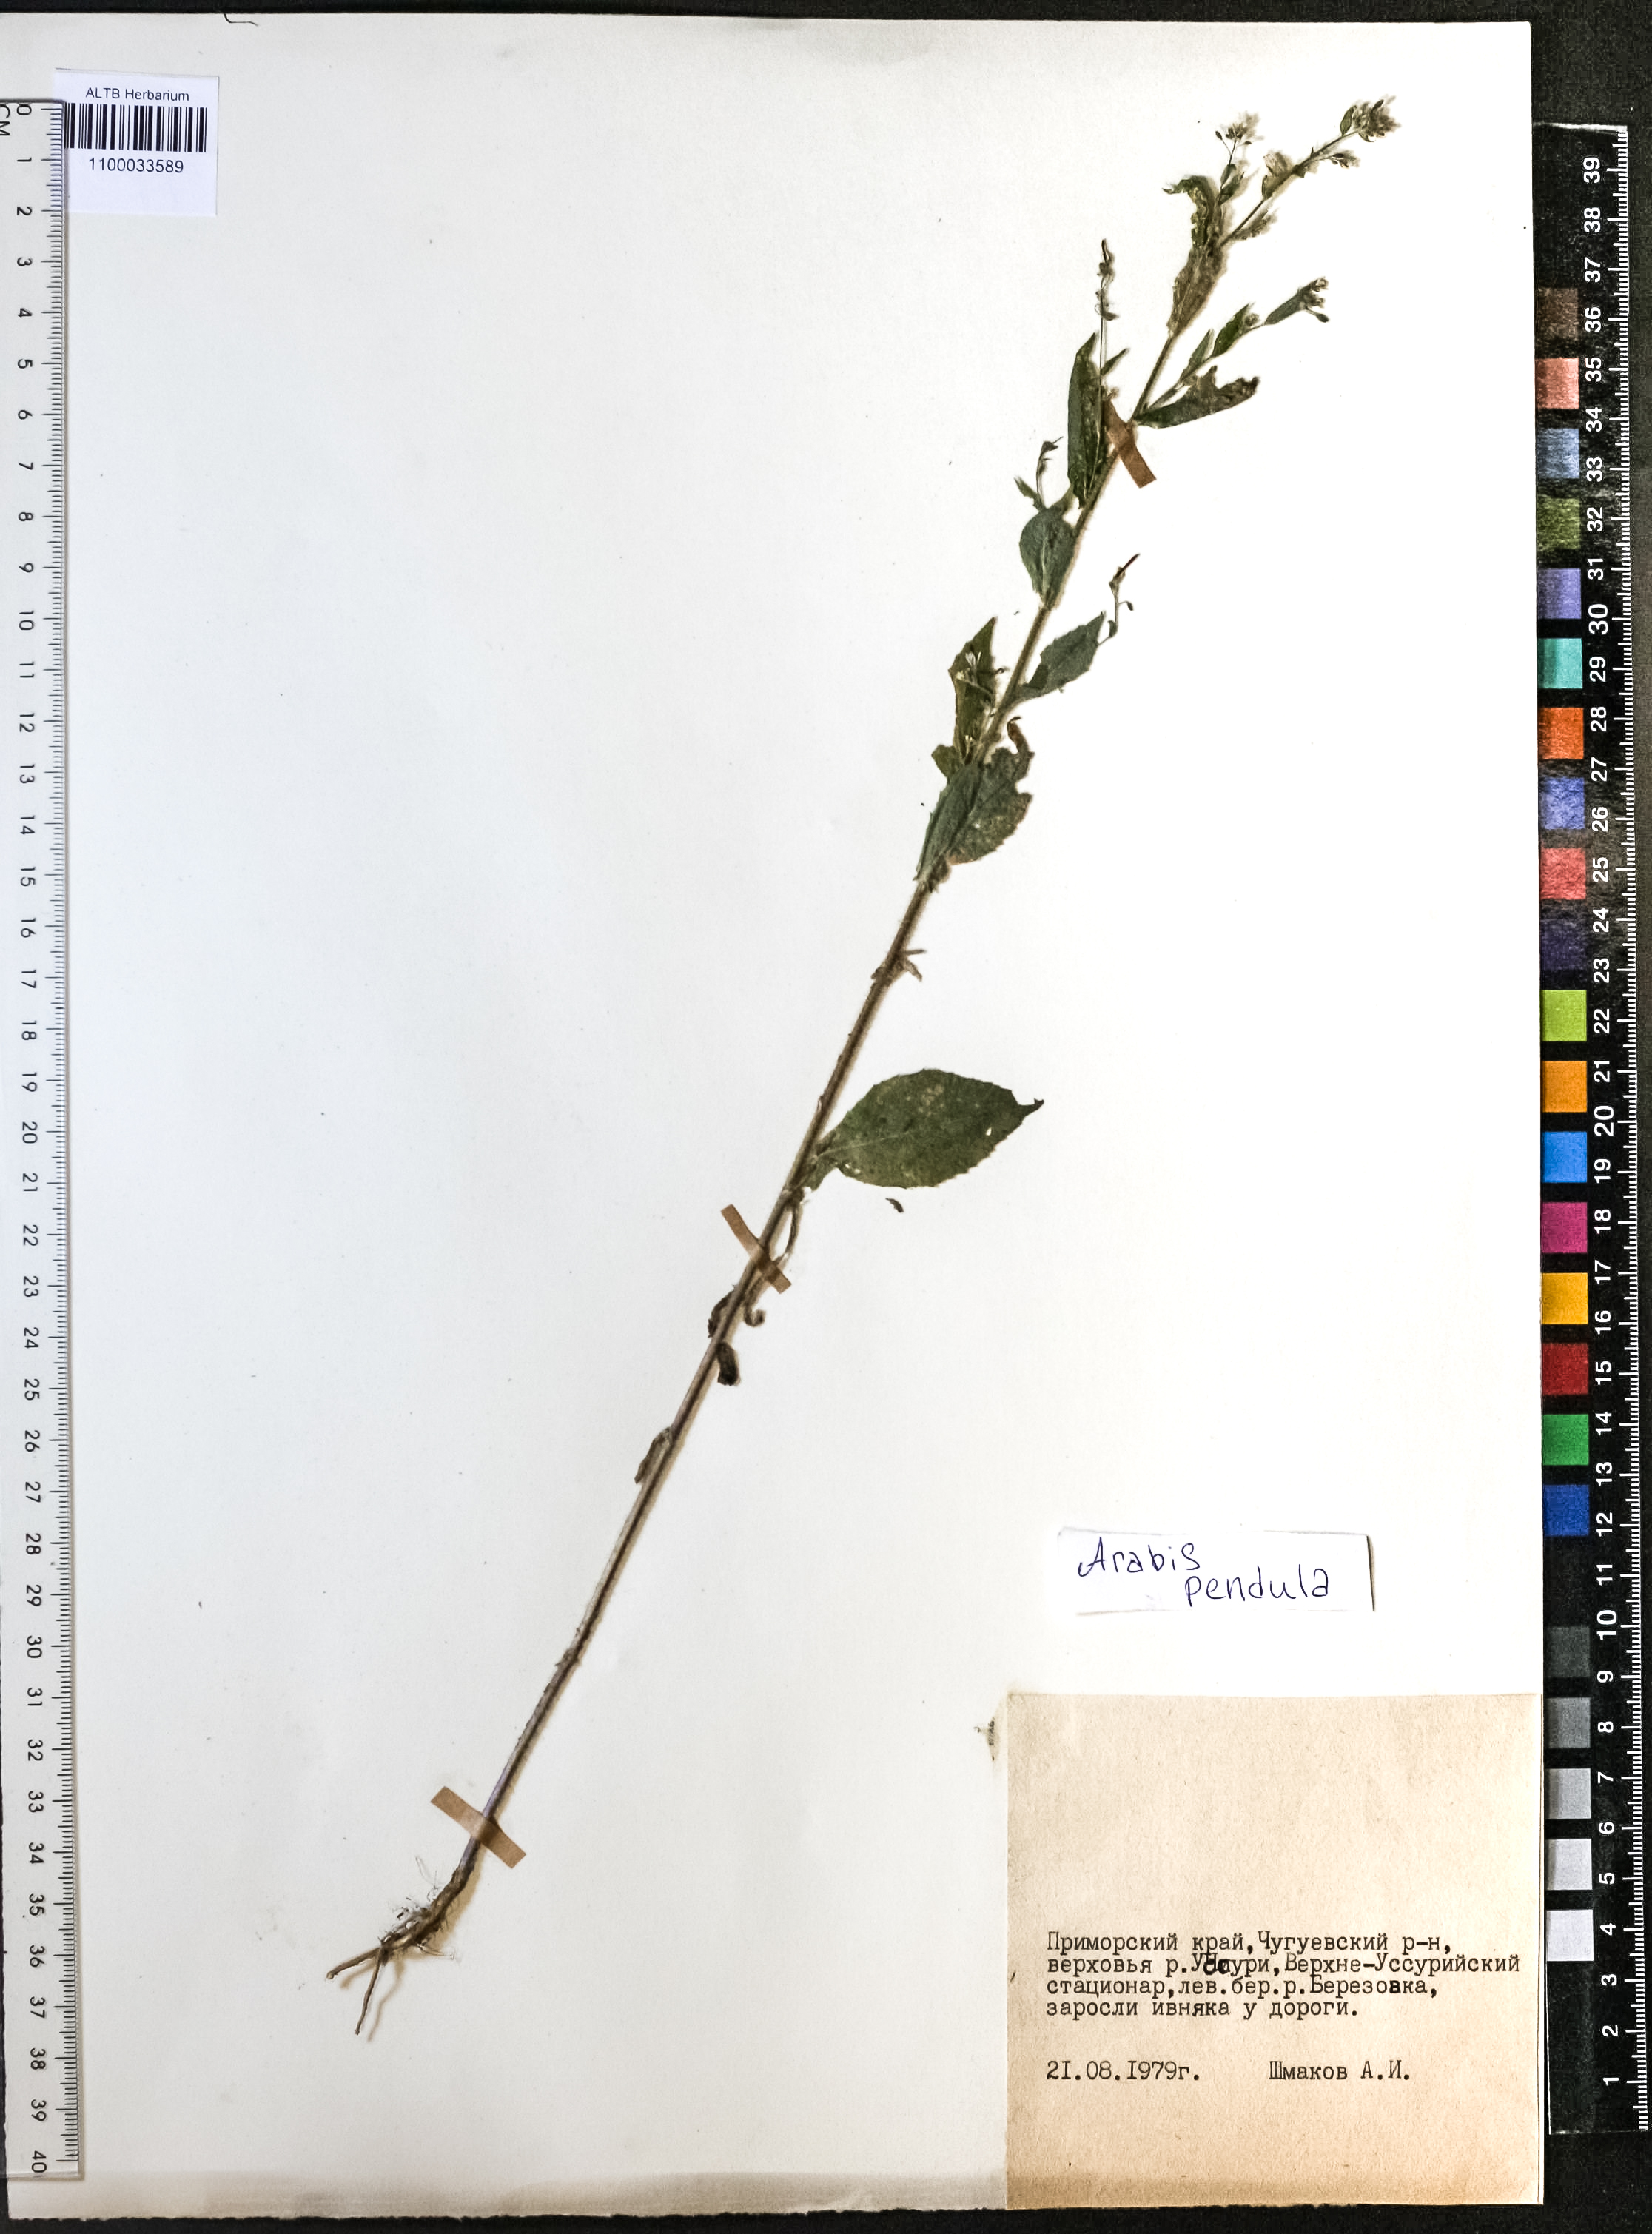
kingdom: Plantae
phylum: Tracheophyta
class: Magnoliopsida
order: Brassicales
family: Brassicaceae
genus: Catolobus
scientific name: Catolobus pendulus
